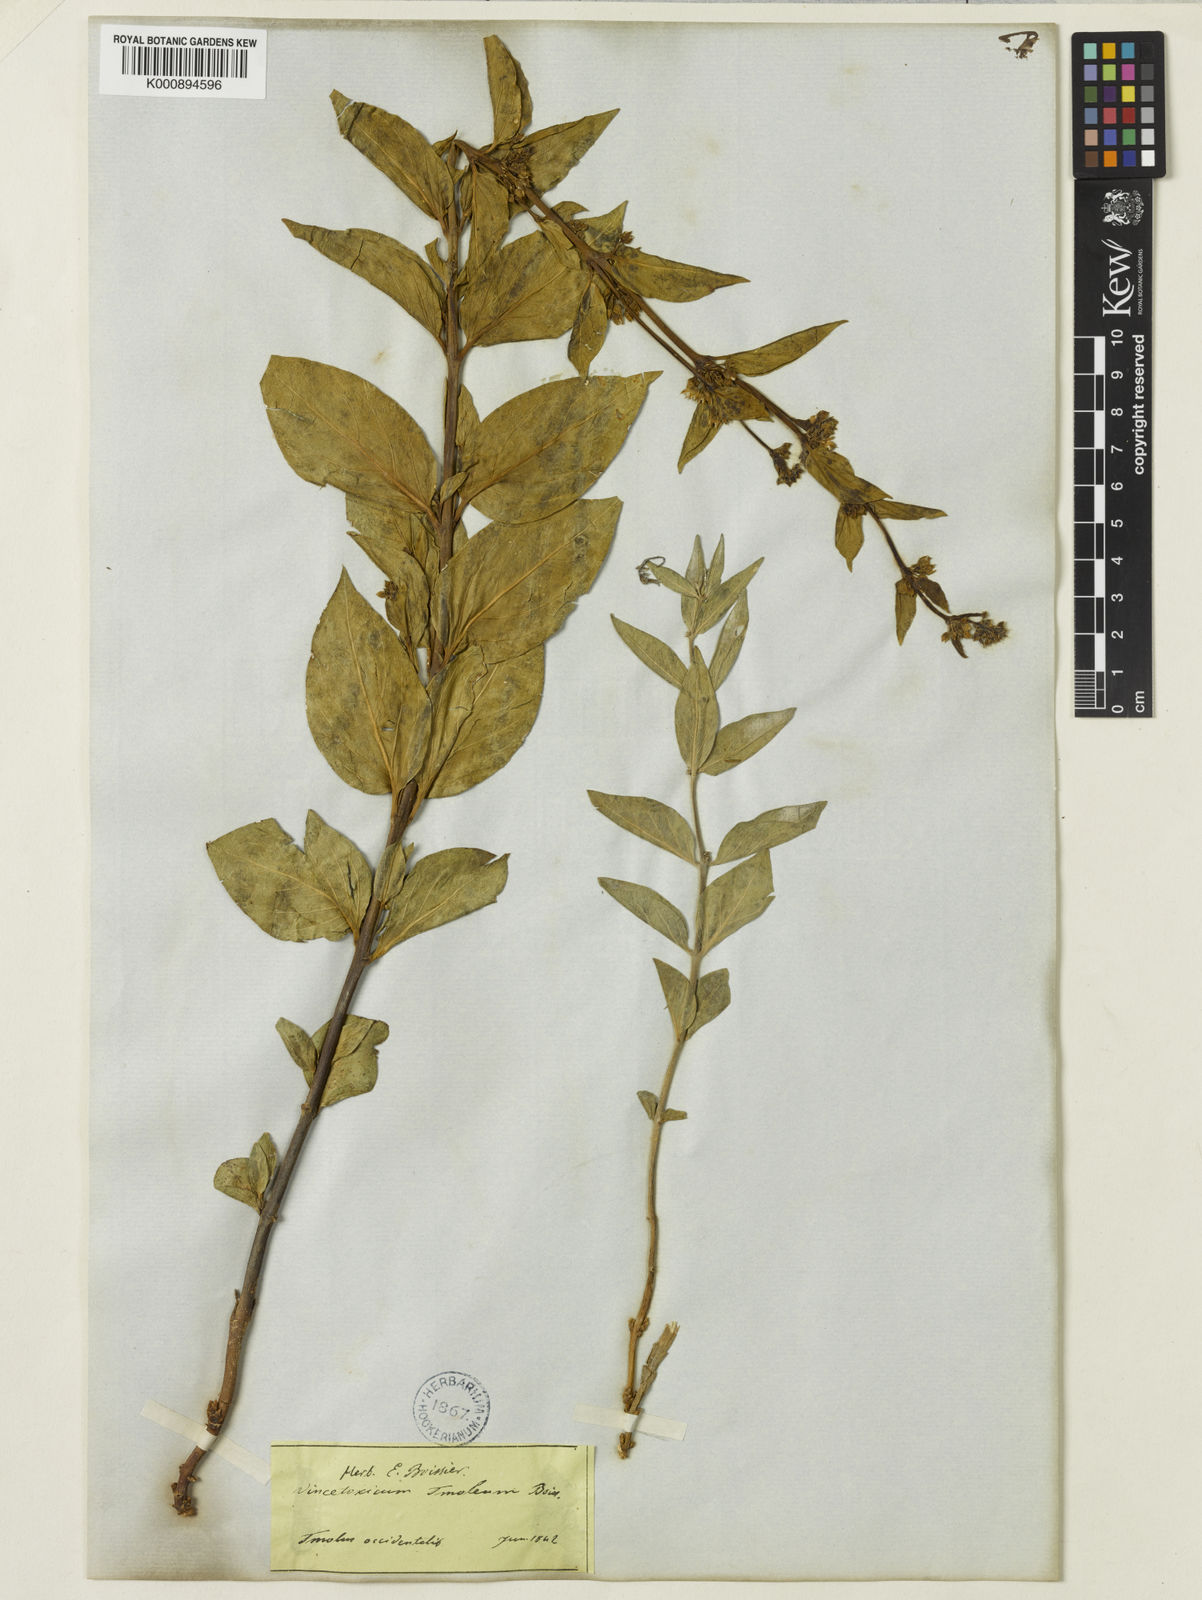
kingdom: Plantae
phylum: Tracheophyta
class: Magnoliopsida
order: Gentianales
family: Apocynaceae
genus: Vincetoxicum
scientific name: Vincetoxicum tmoleum
